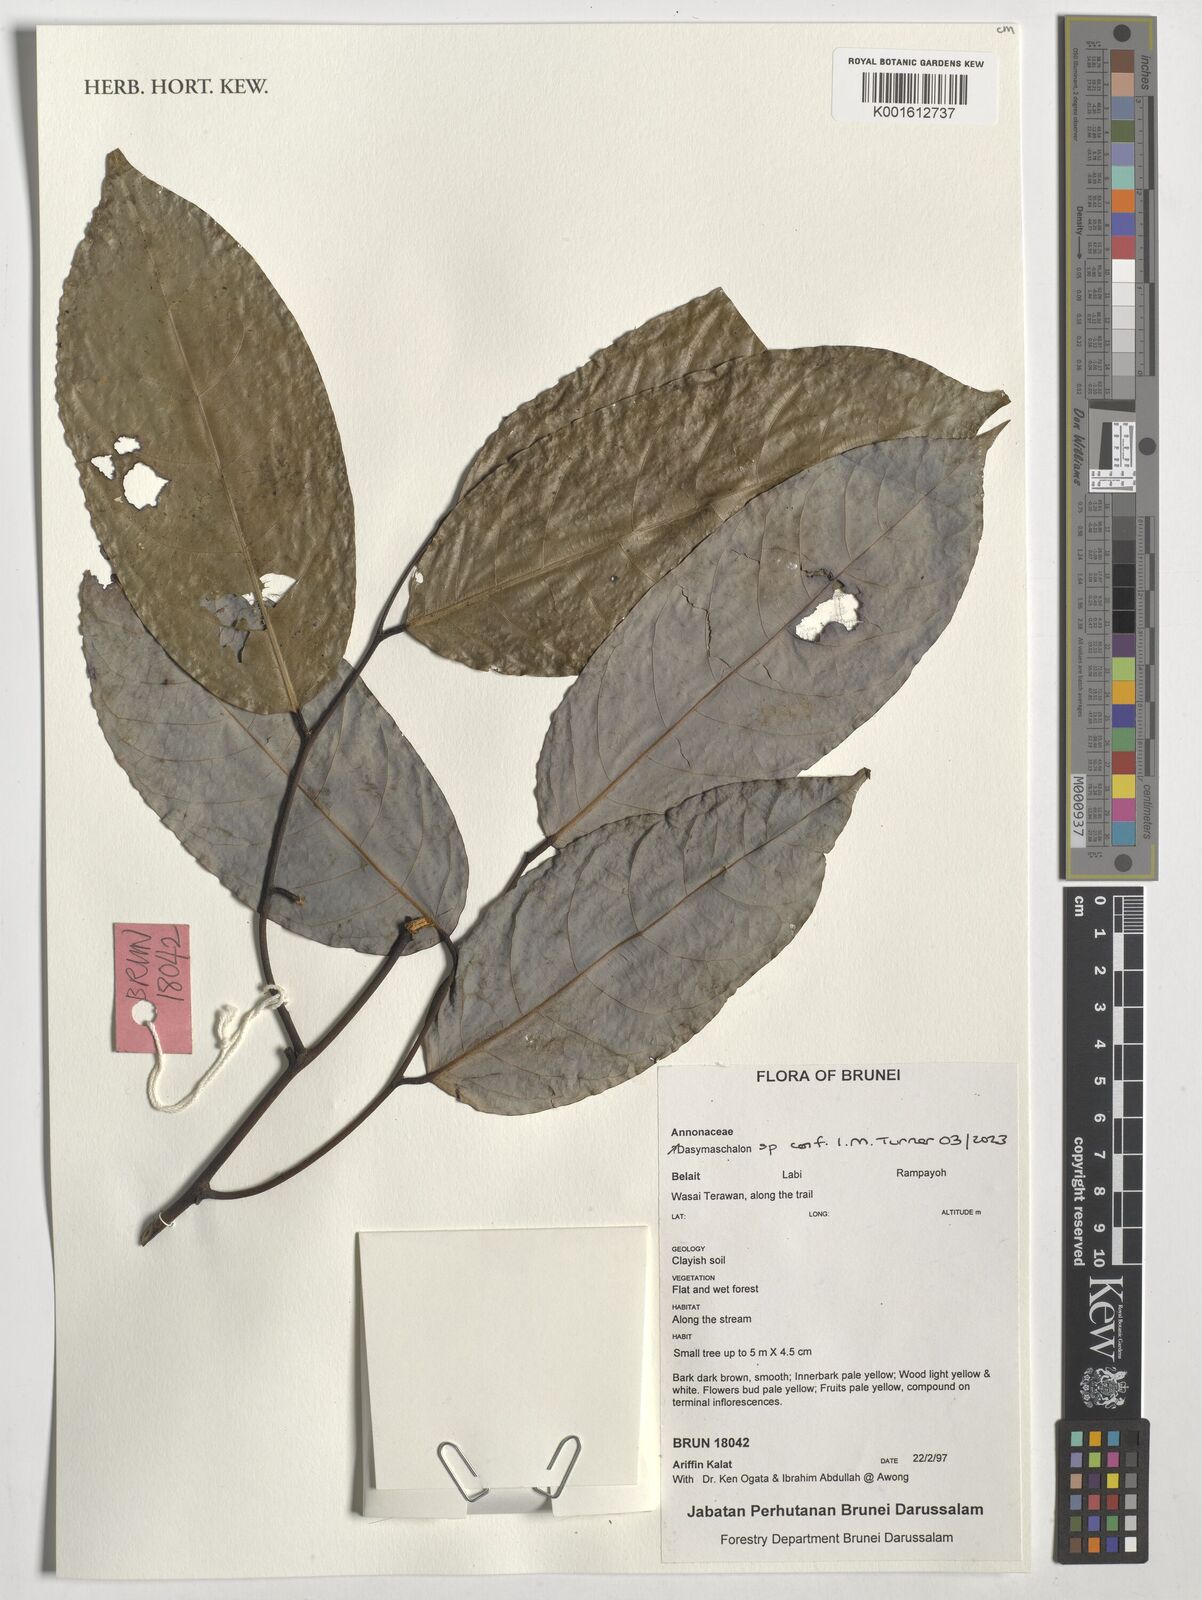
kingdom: Plantae
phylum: Tracheophyta
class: Magnoliopsida
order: Magnoliales
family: Annonaceae
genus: Dasymaschalon
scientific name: Dasymaschalon
